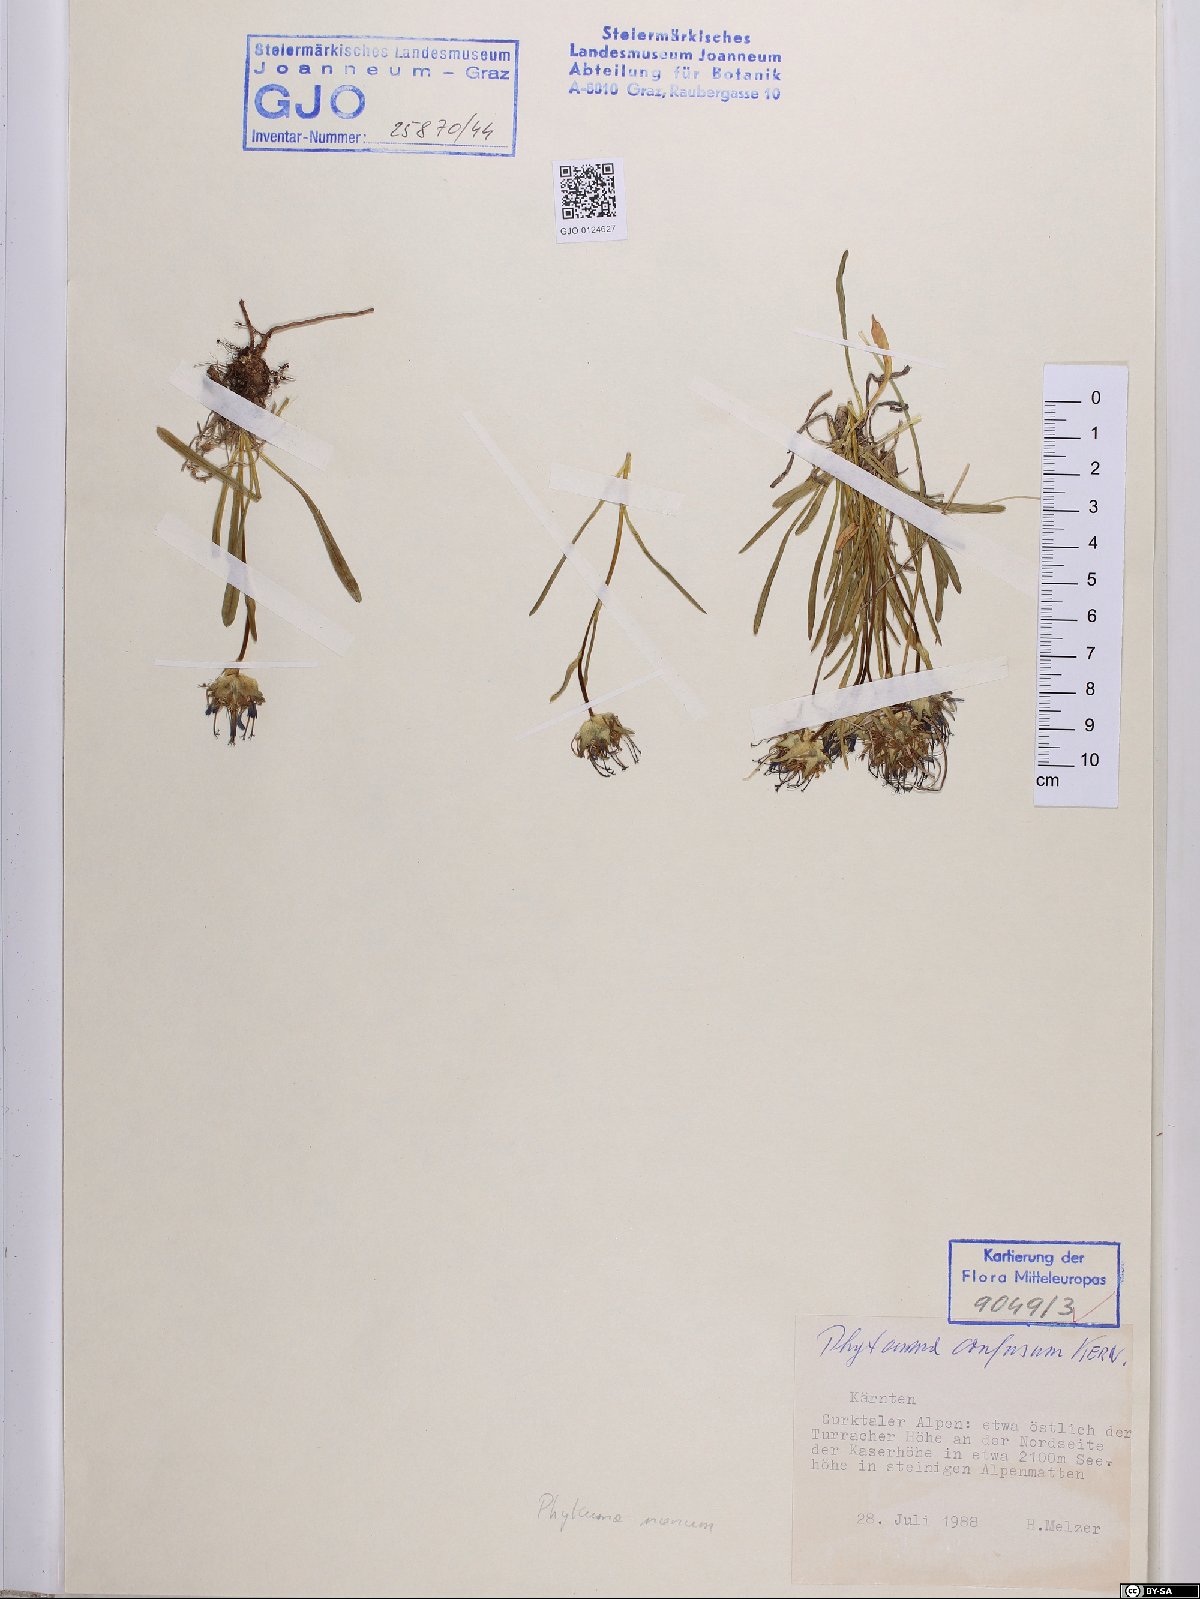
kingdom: Plantae
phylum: Tracheophyta
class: Magnoliopsida
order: Asterales
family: Campanulaceae
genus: Phyteuma
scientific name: Phyteuma confusum
